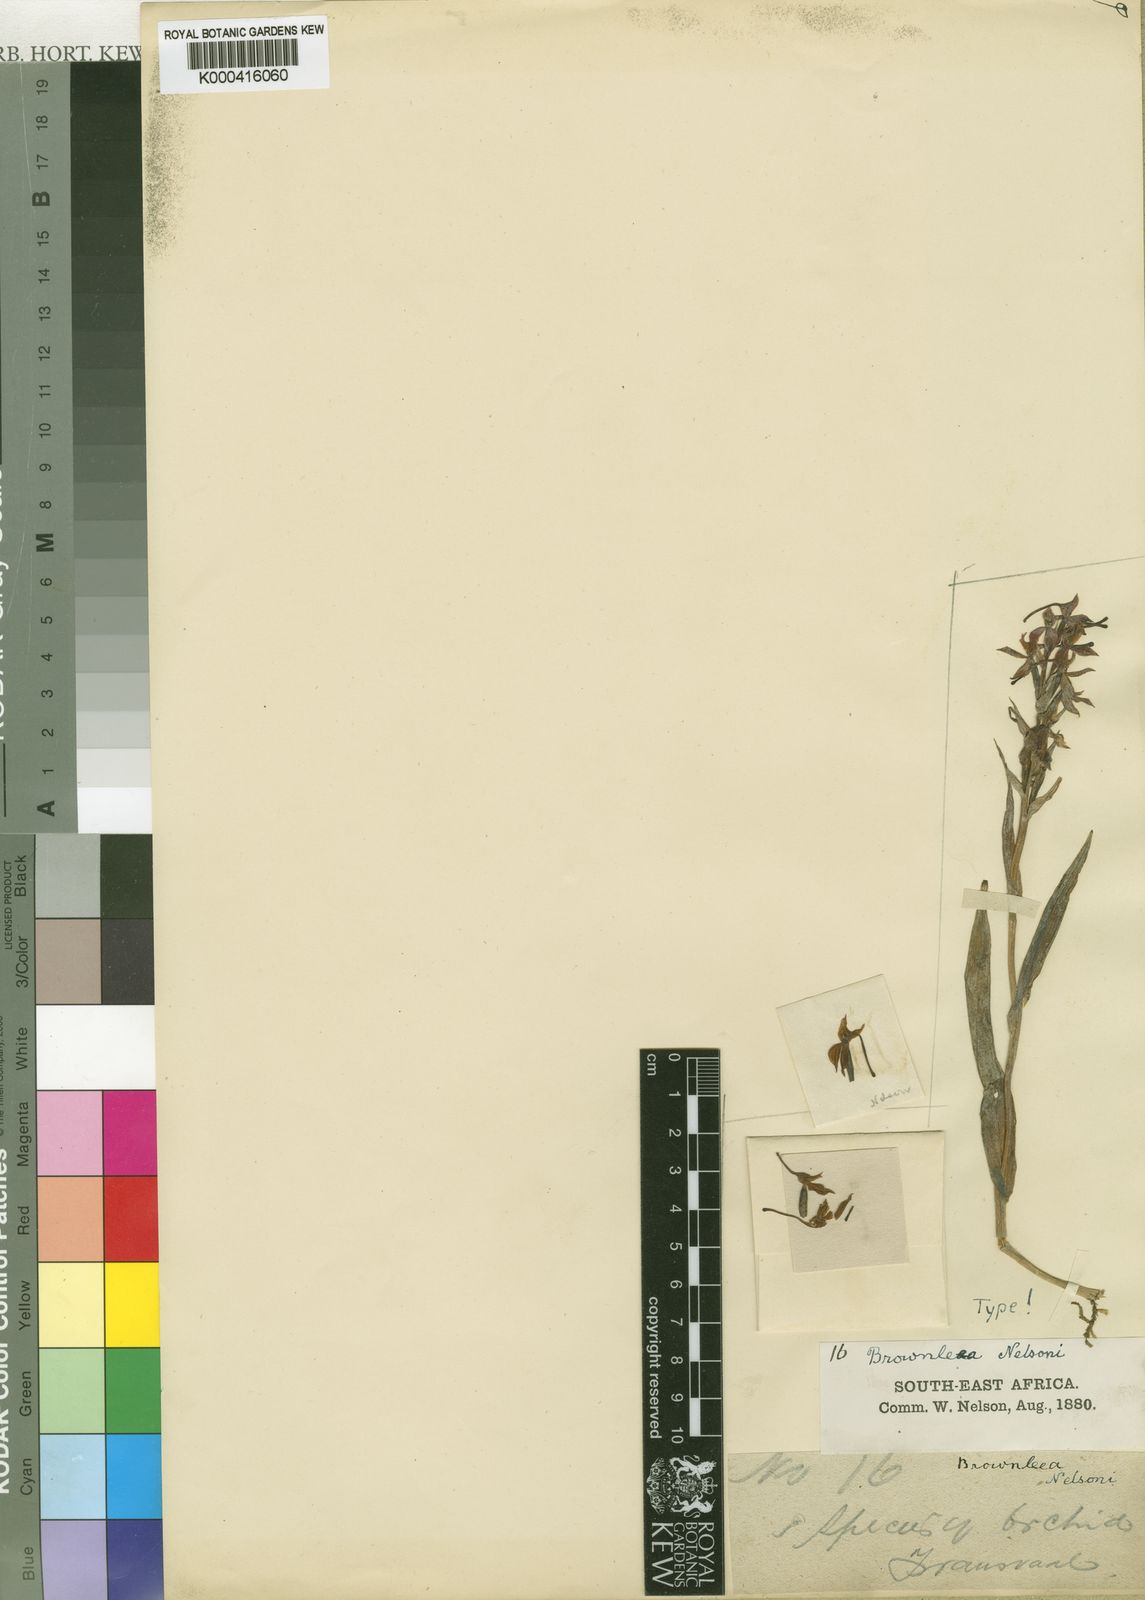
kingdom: Plantae
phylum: Tracheophyta
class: Liliopsida
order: Asparagales
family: Orchidaceae
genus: Brownleea
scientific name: Brownleea coerulea
